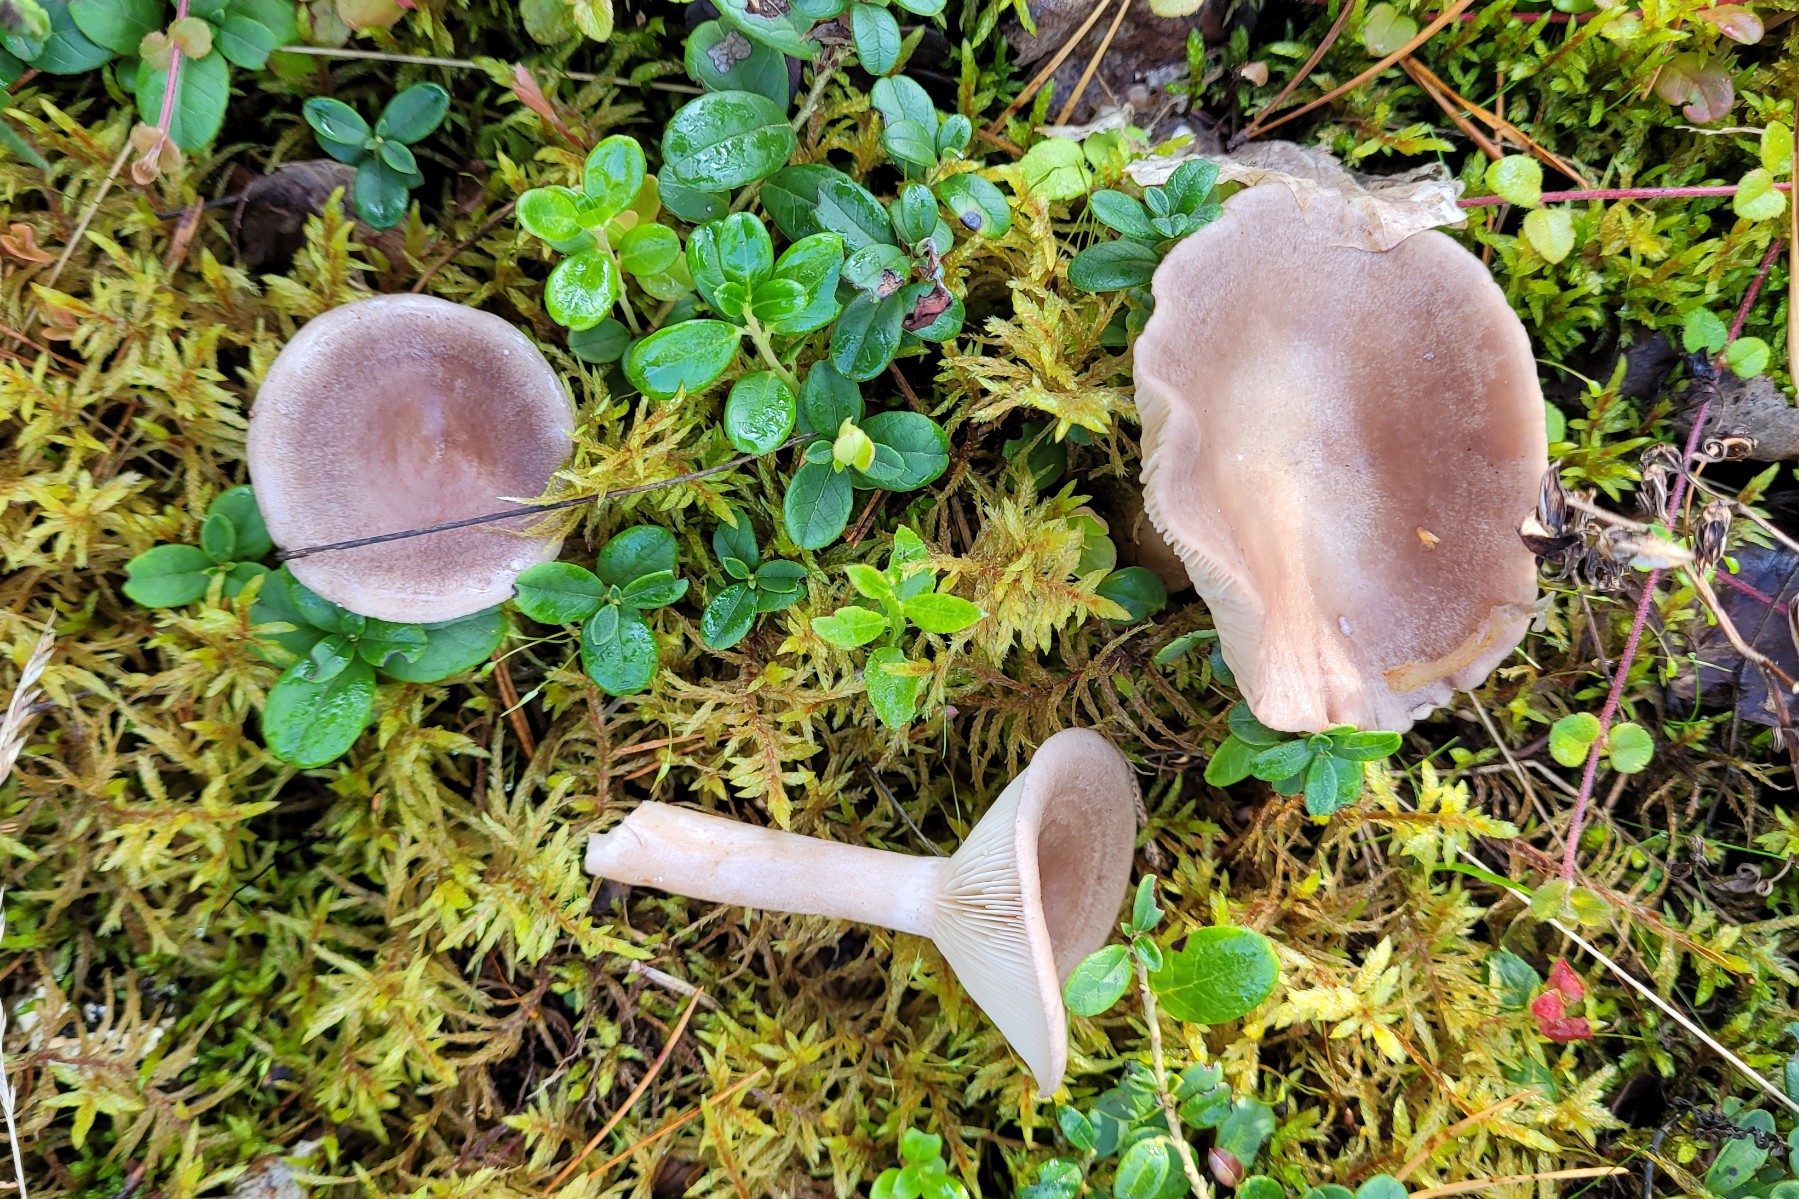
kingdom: Fungi
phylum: Basidiomycota
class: Agaricomycetes
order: Russulales
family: Russulaceae
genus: Lactarius
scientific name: Lactarius vietus
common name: violetgrå mælkehat
